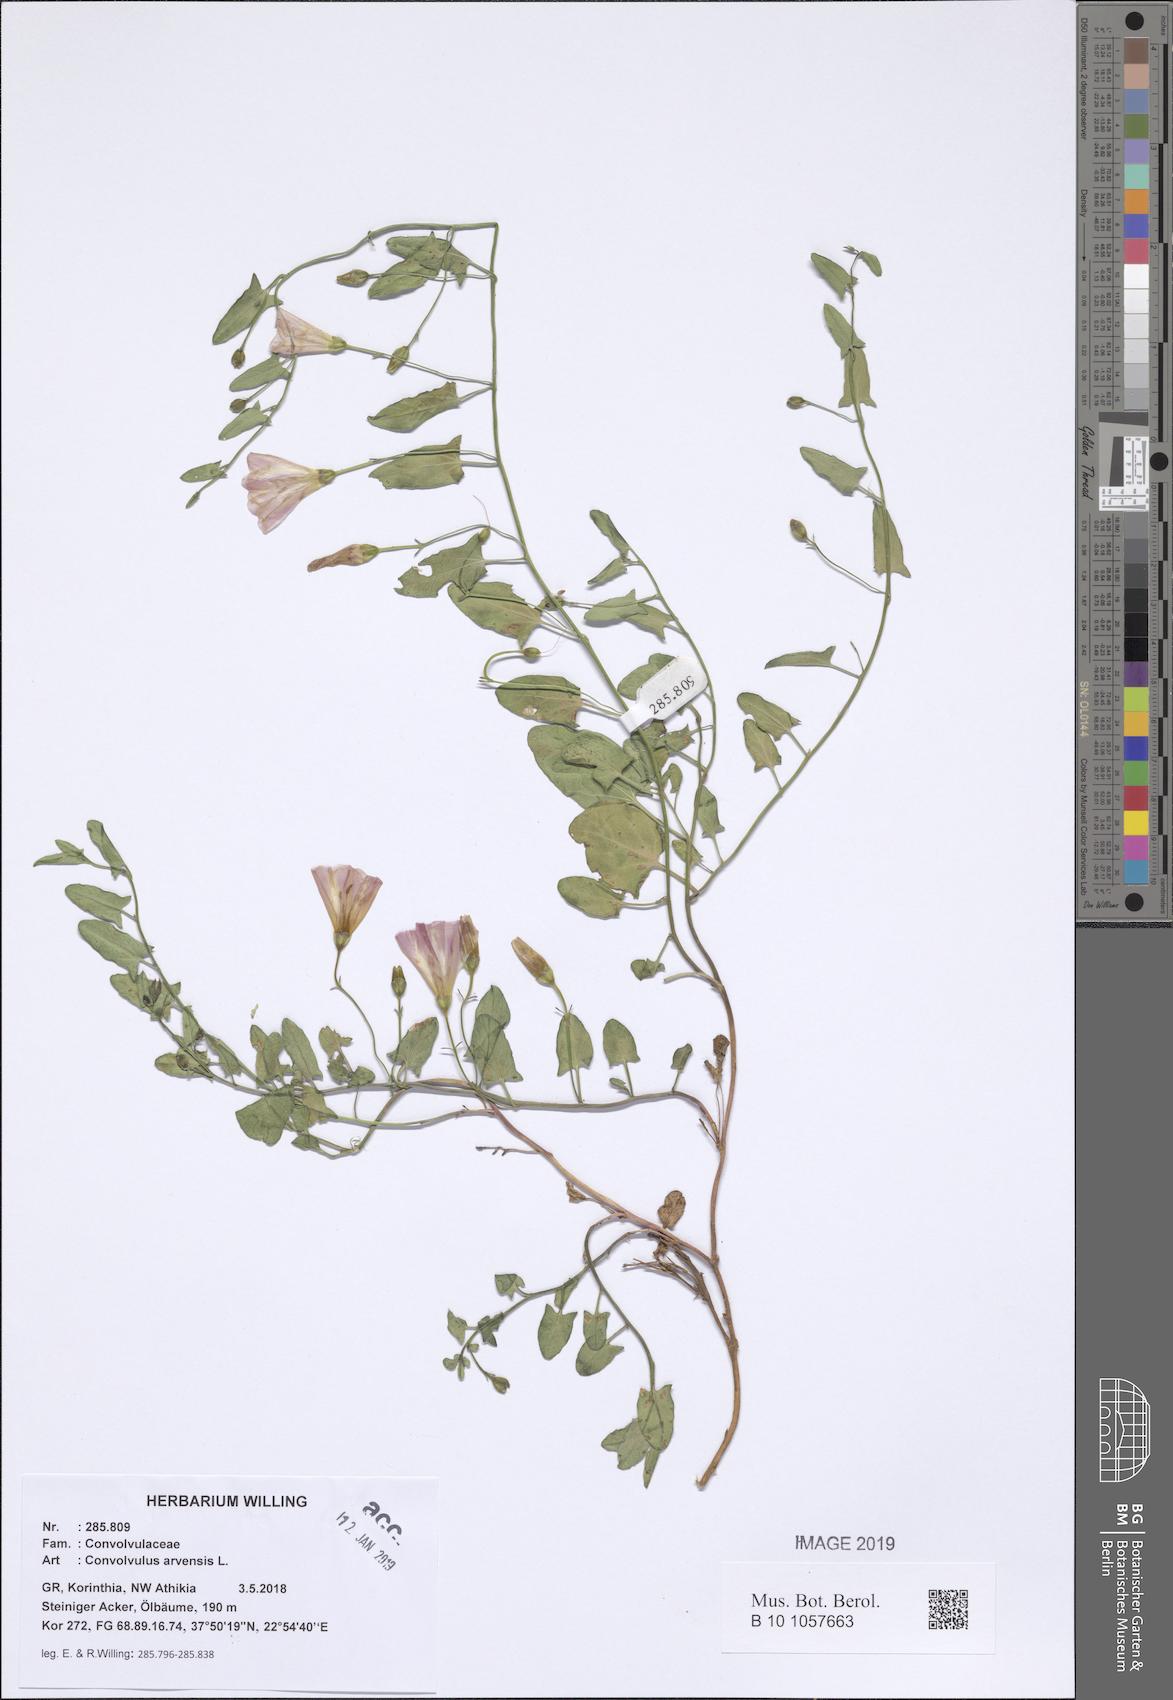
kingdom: Plantae
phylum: Tracheophyta
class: Magnoliopsida
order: Solanales
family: Convolvulaceae
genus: Convolvulus
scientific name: Convolvulus arvensis
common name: Field bindweed
